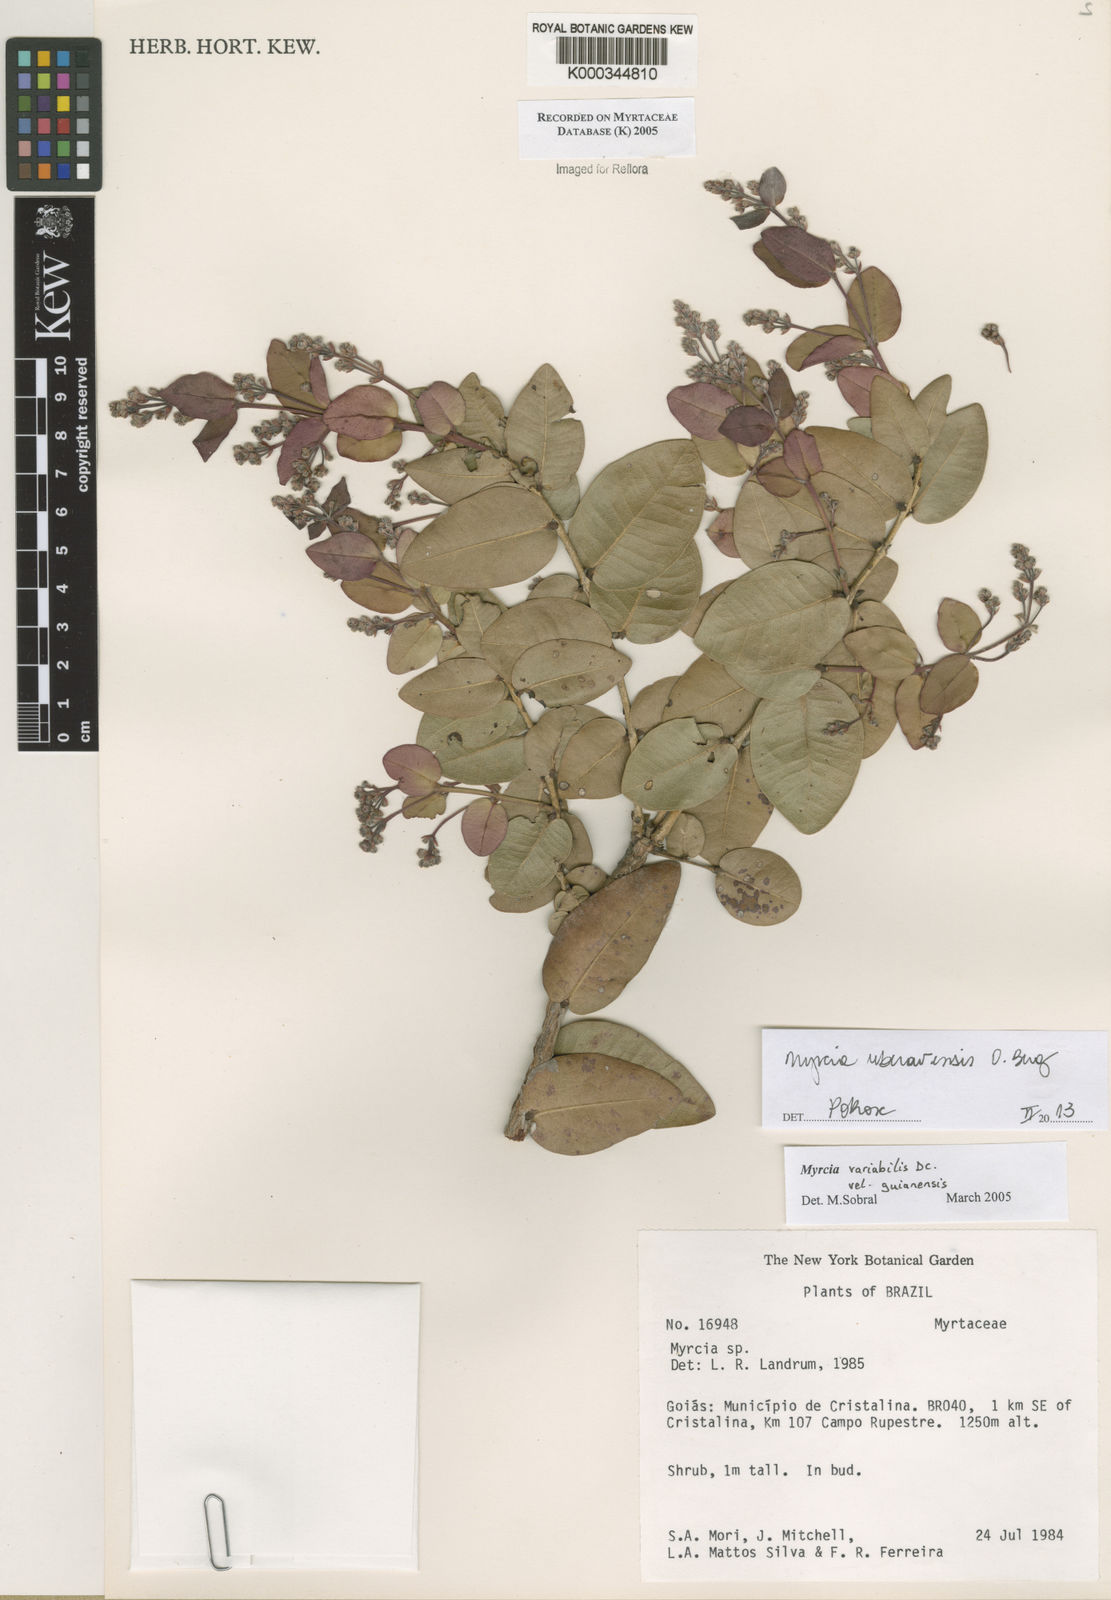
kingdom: Plantae
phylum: Tracheophyta
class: Magnoliopsida
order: Myrtales
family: Myrtaceae
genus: Myrcia
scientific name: Myrcia variabilis
